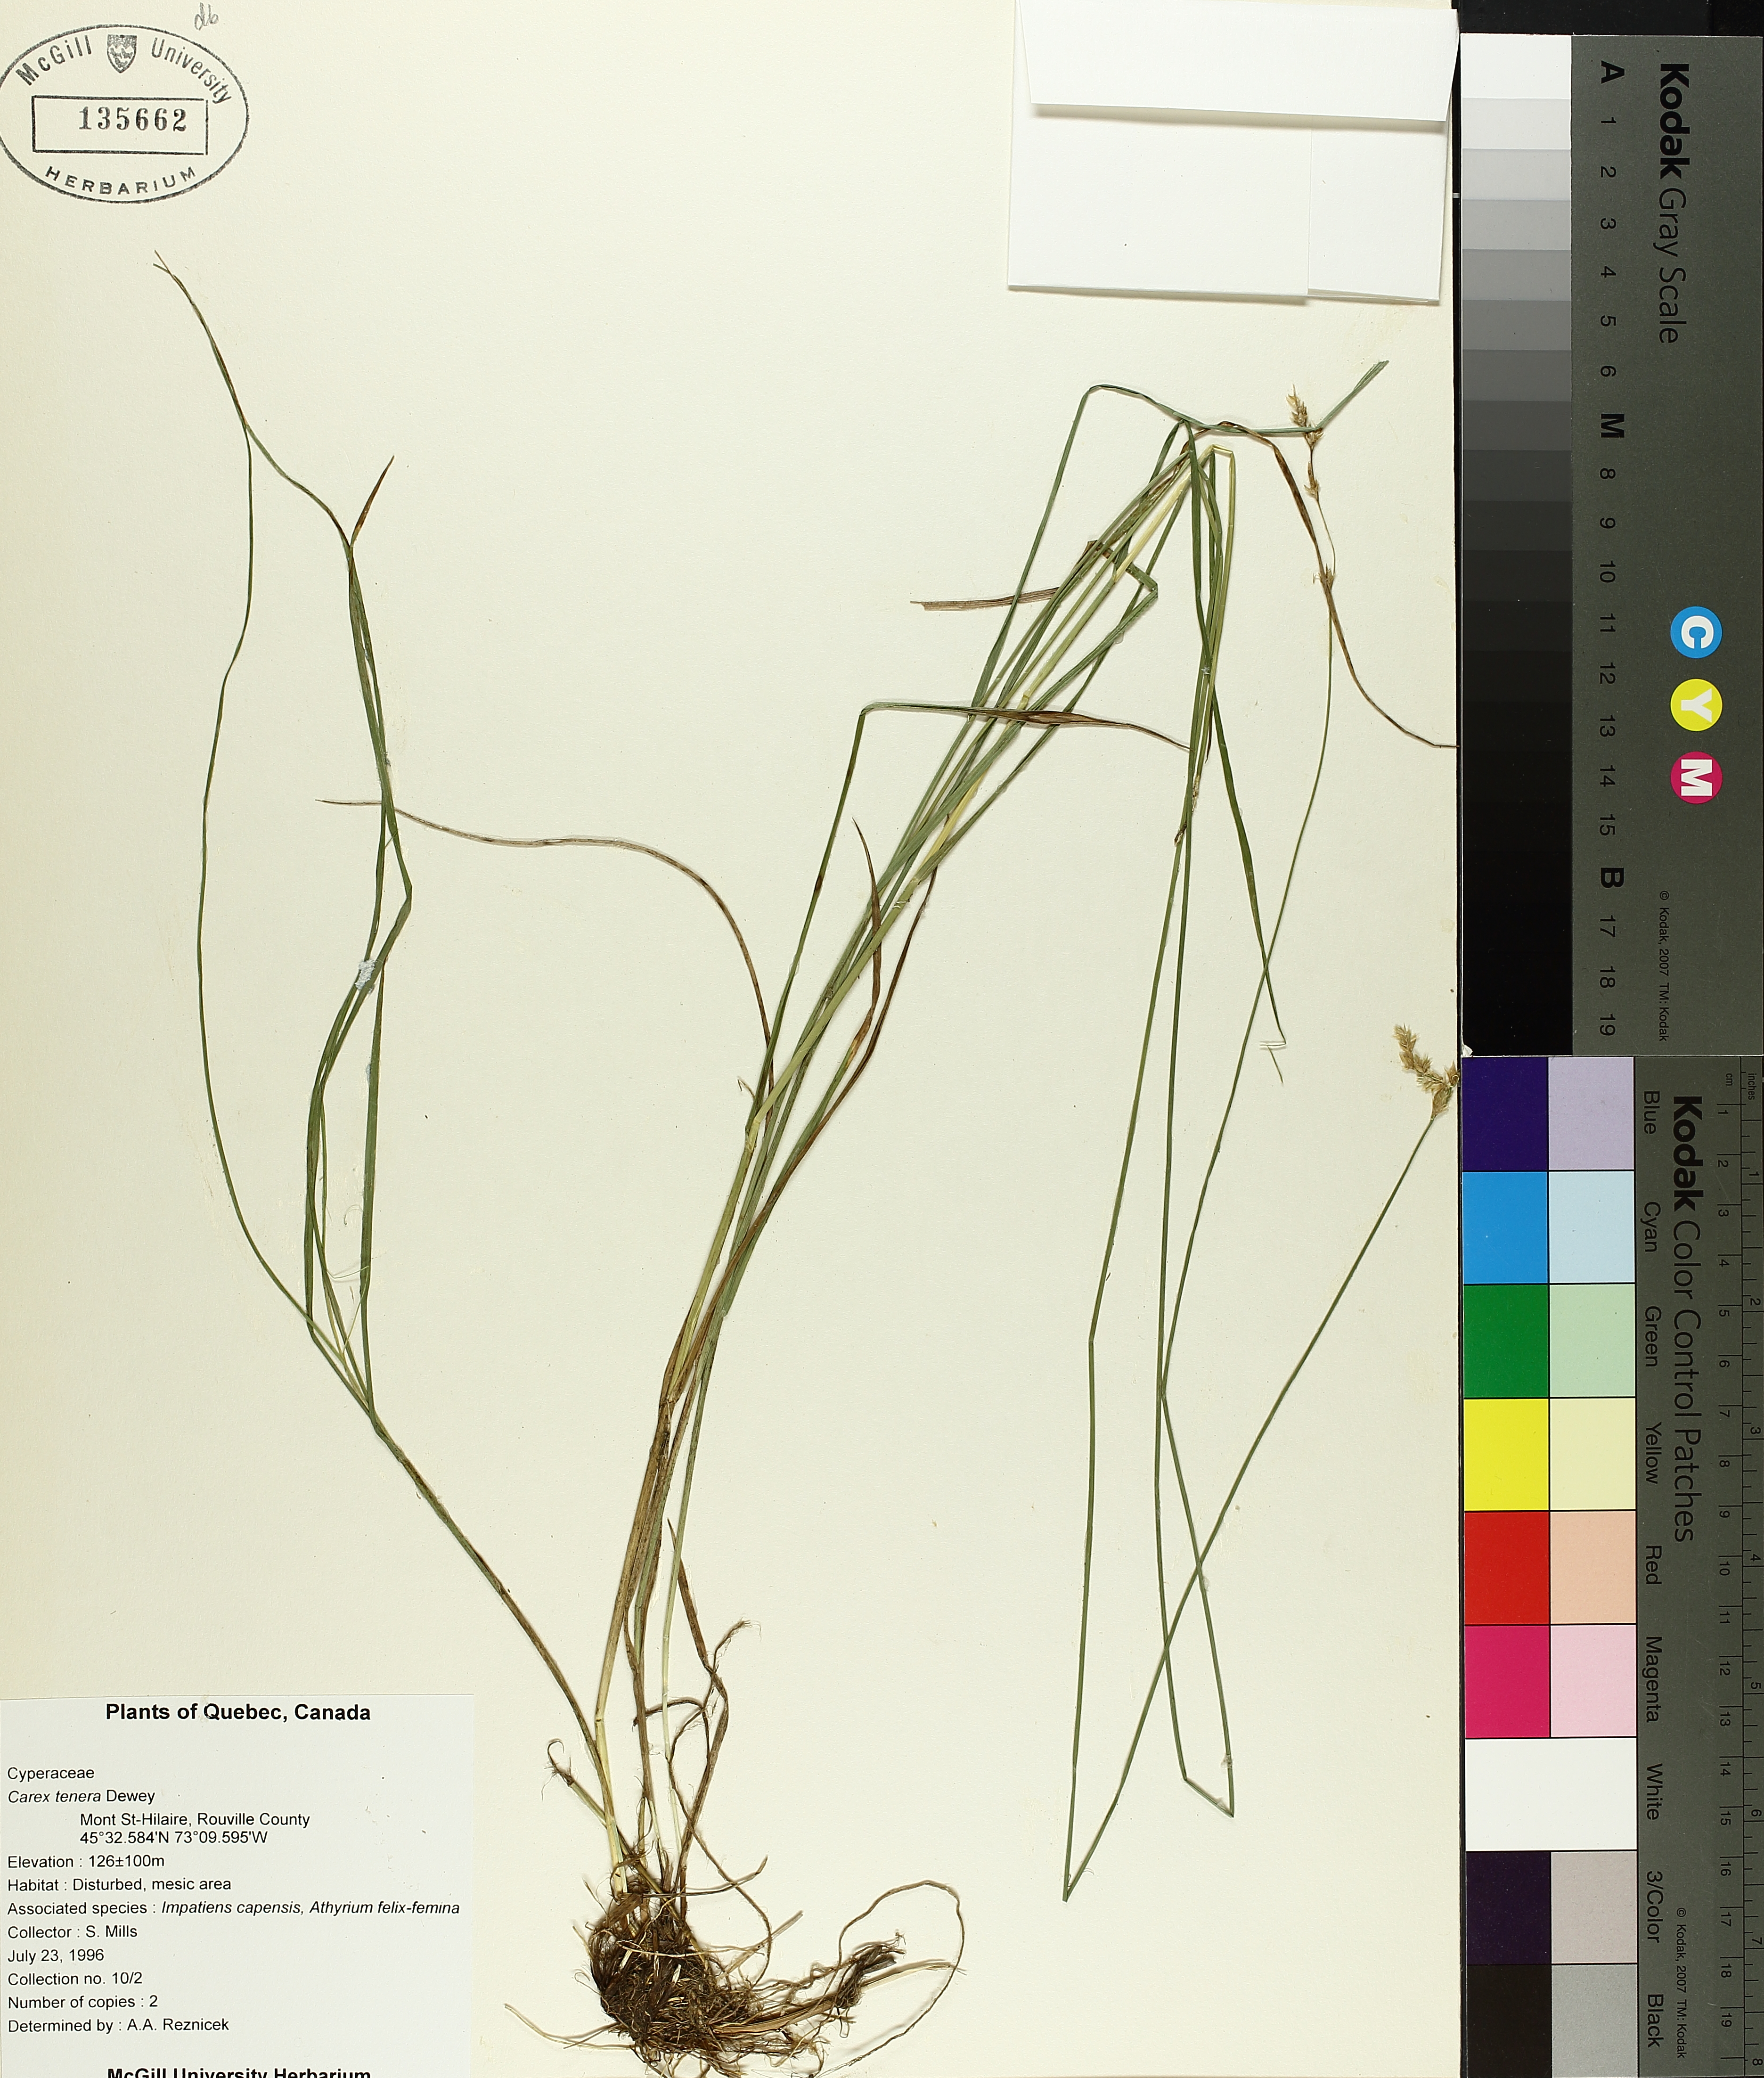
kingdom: Plantae
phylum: Tracheophyta
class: Liliopsida
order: Poales
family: Cyperaceae
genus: Carex
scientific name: Carex tenera
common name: Broad-fruited sedge
